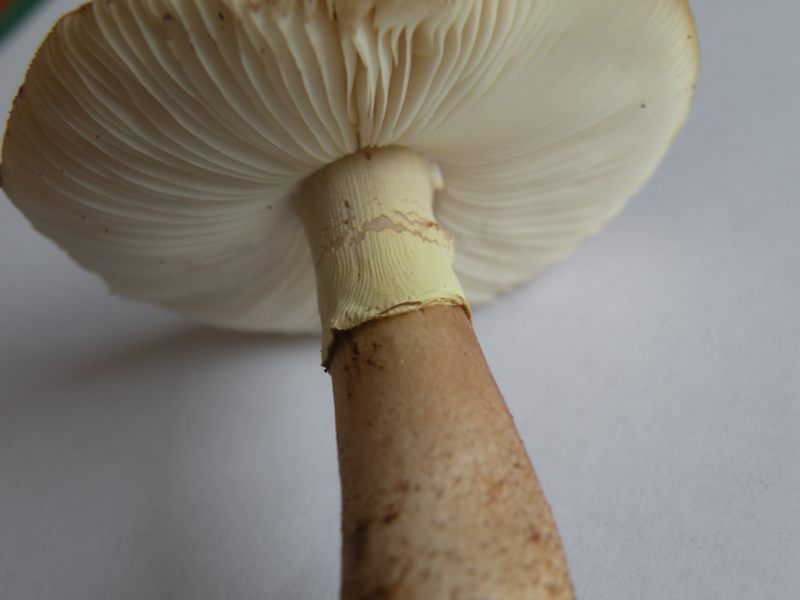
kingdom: Fungi
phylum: Basidiomycota
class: Agaricomycetes
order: Agaricales
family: Amanitaceae
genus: Amanita
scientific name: Amanita rubescens
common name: rødmende fluesvamp
